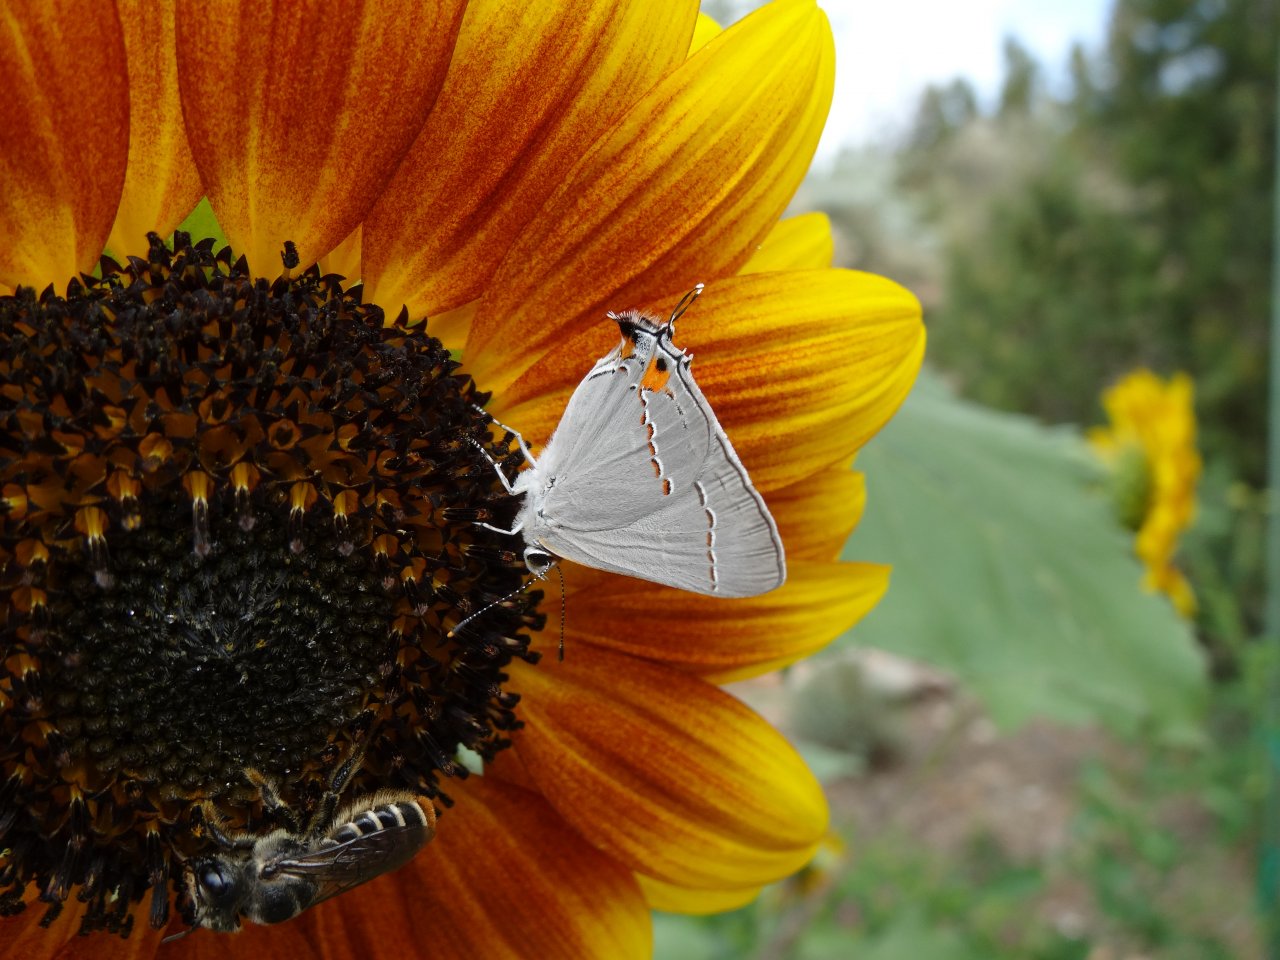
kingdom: Animalia
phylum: Arthropoda
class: Insecta
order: Lepidoptera
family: Lycaenidae
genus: Strymon
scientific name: Strymon melinus
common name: Gray Hairstreak
